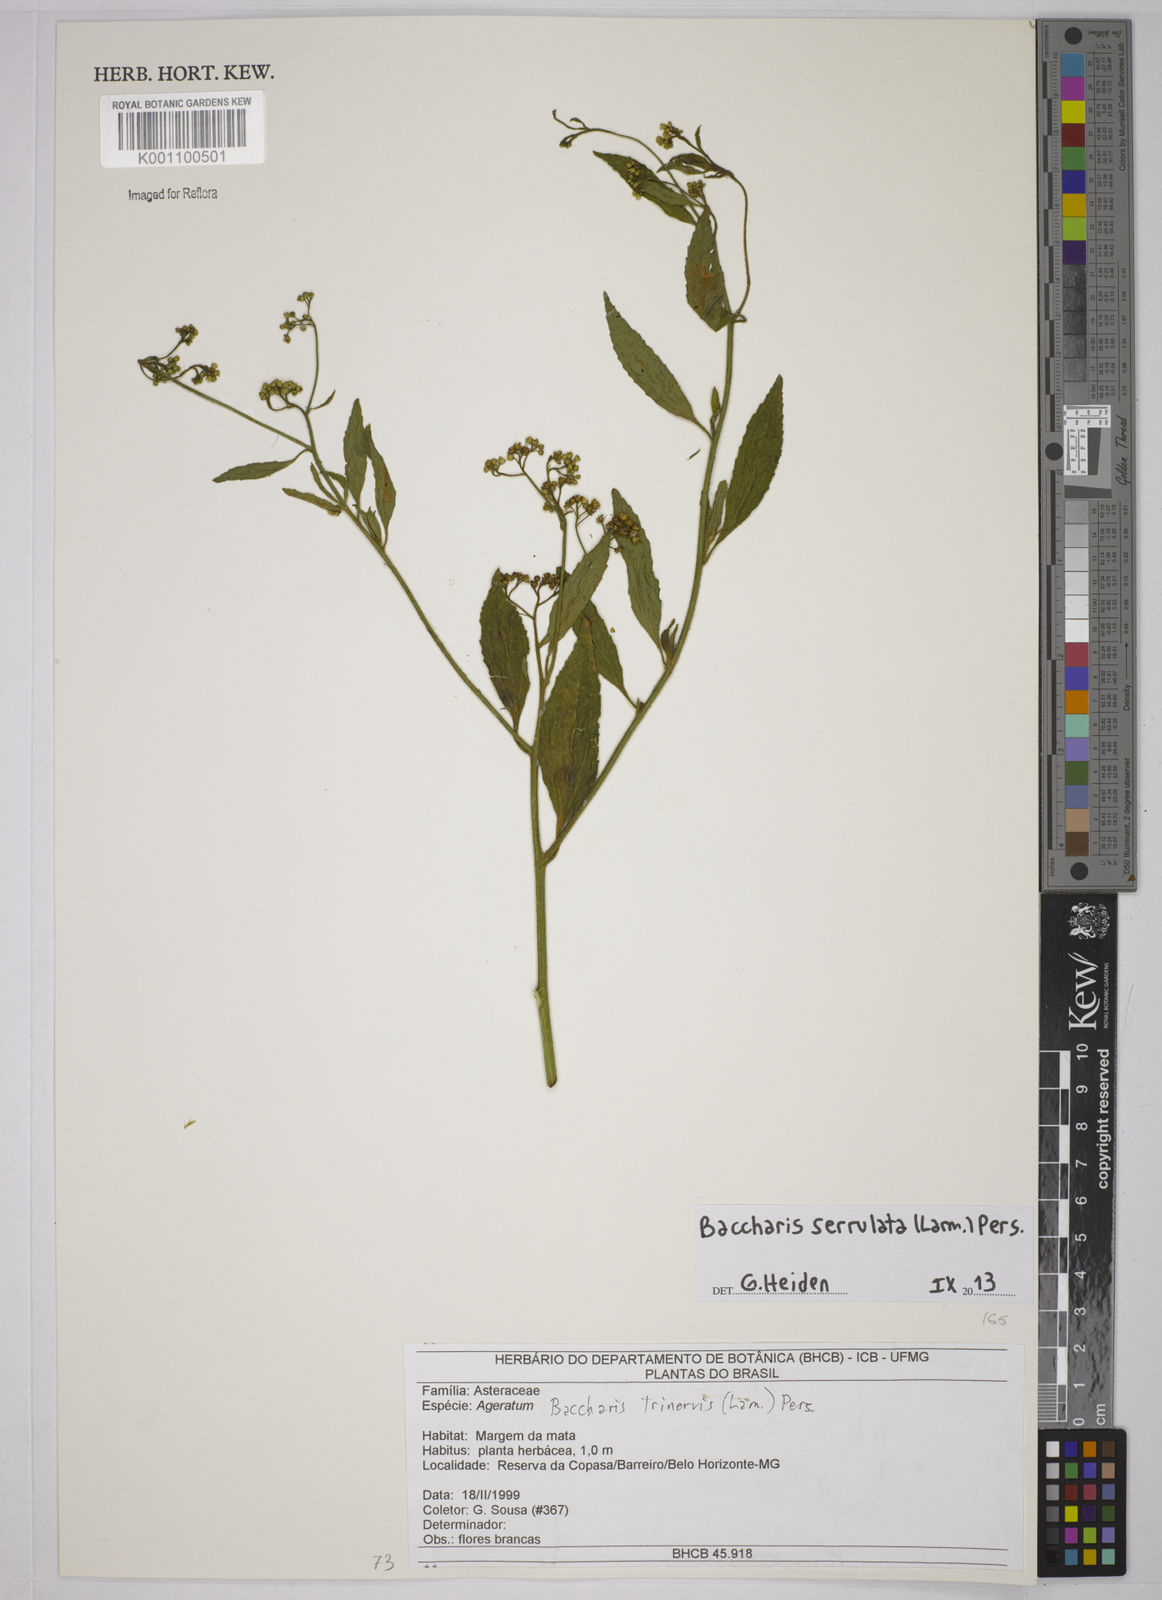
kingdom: Plantae
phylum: Tracheophyta
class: Magnoliopsida
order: Asterales
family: Asteraceae
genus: Baccharis
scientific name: Baccharis serrulata
